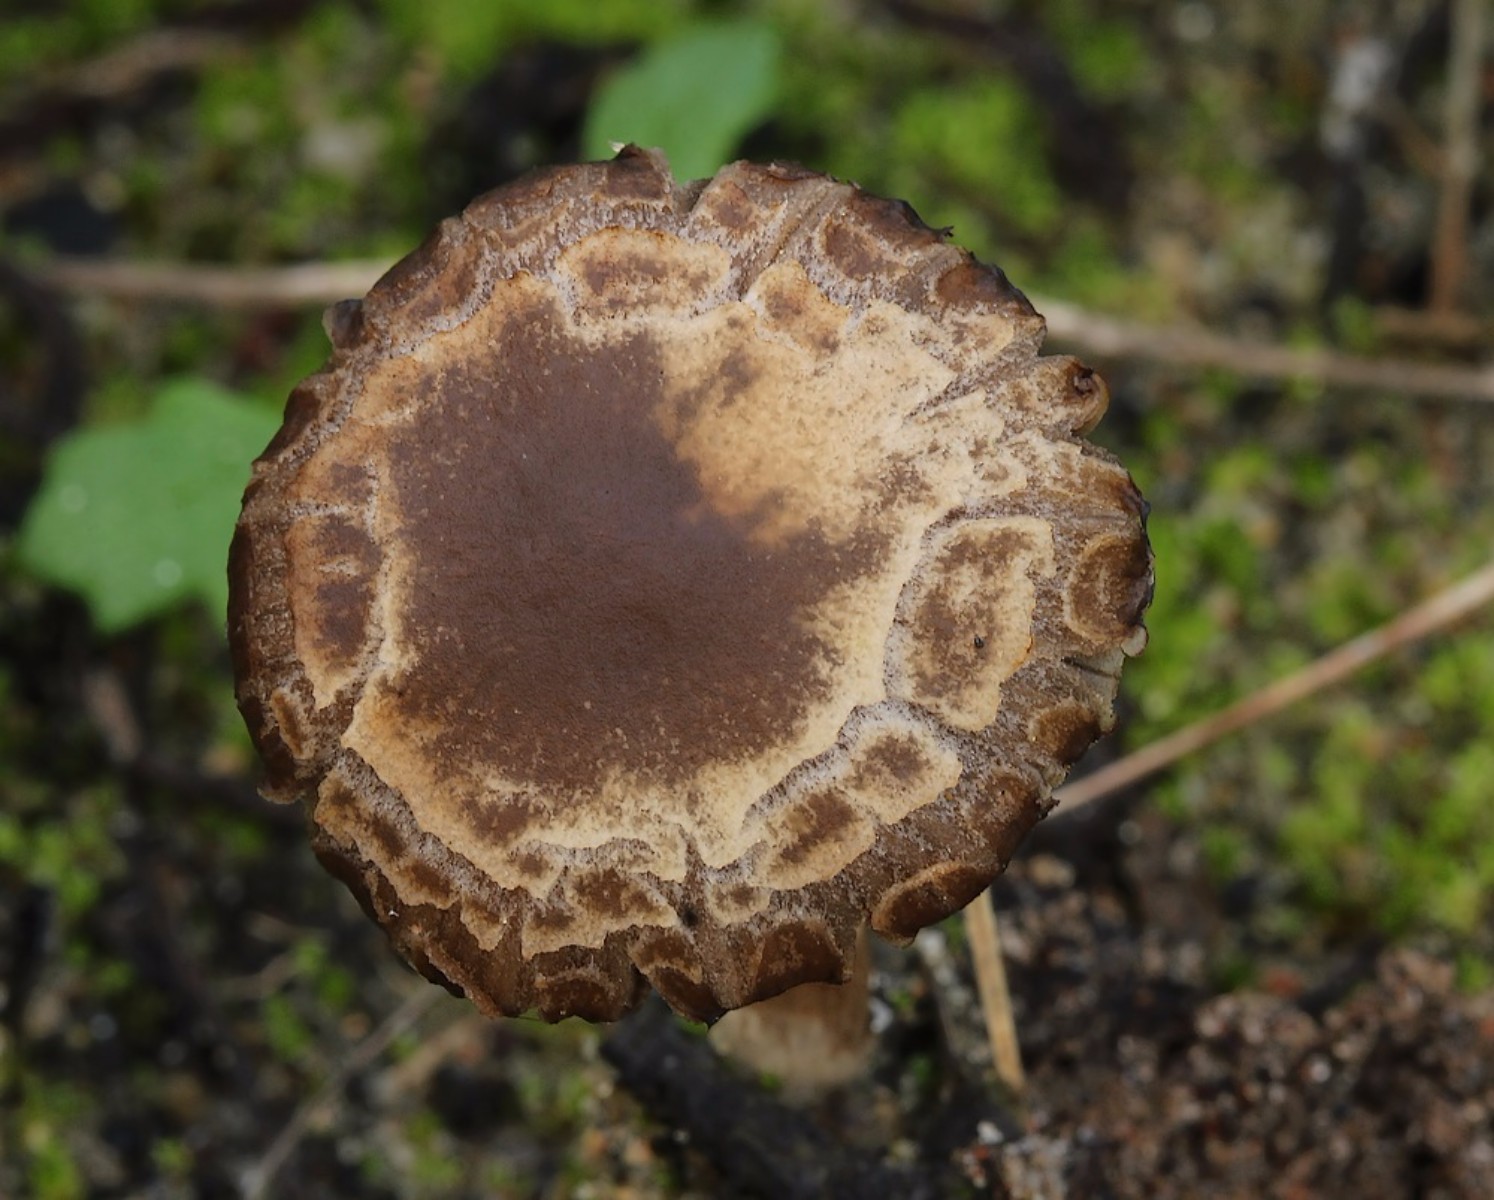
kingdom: Fungi
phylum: Basidiomycota
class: Agaricomycetes
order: Agaricales
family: Psathyrellaceae
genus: Psathyrella
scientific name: Psathyrella
